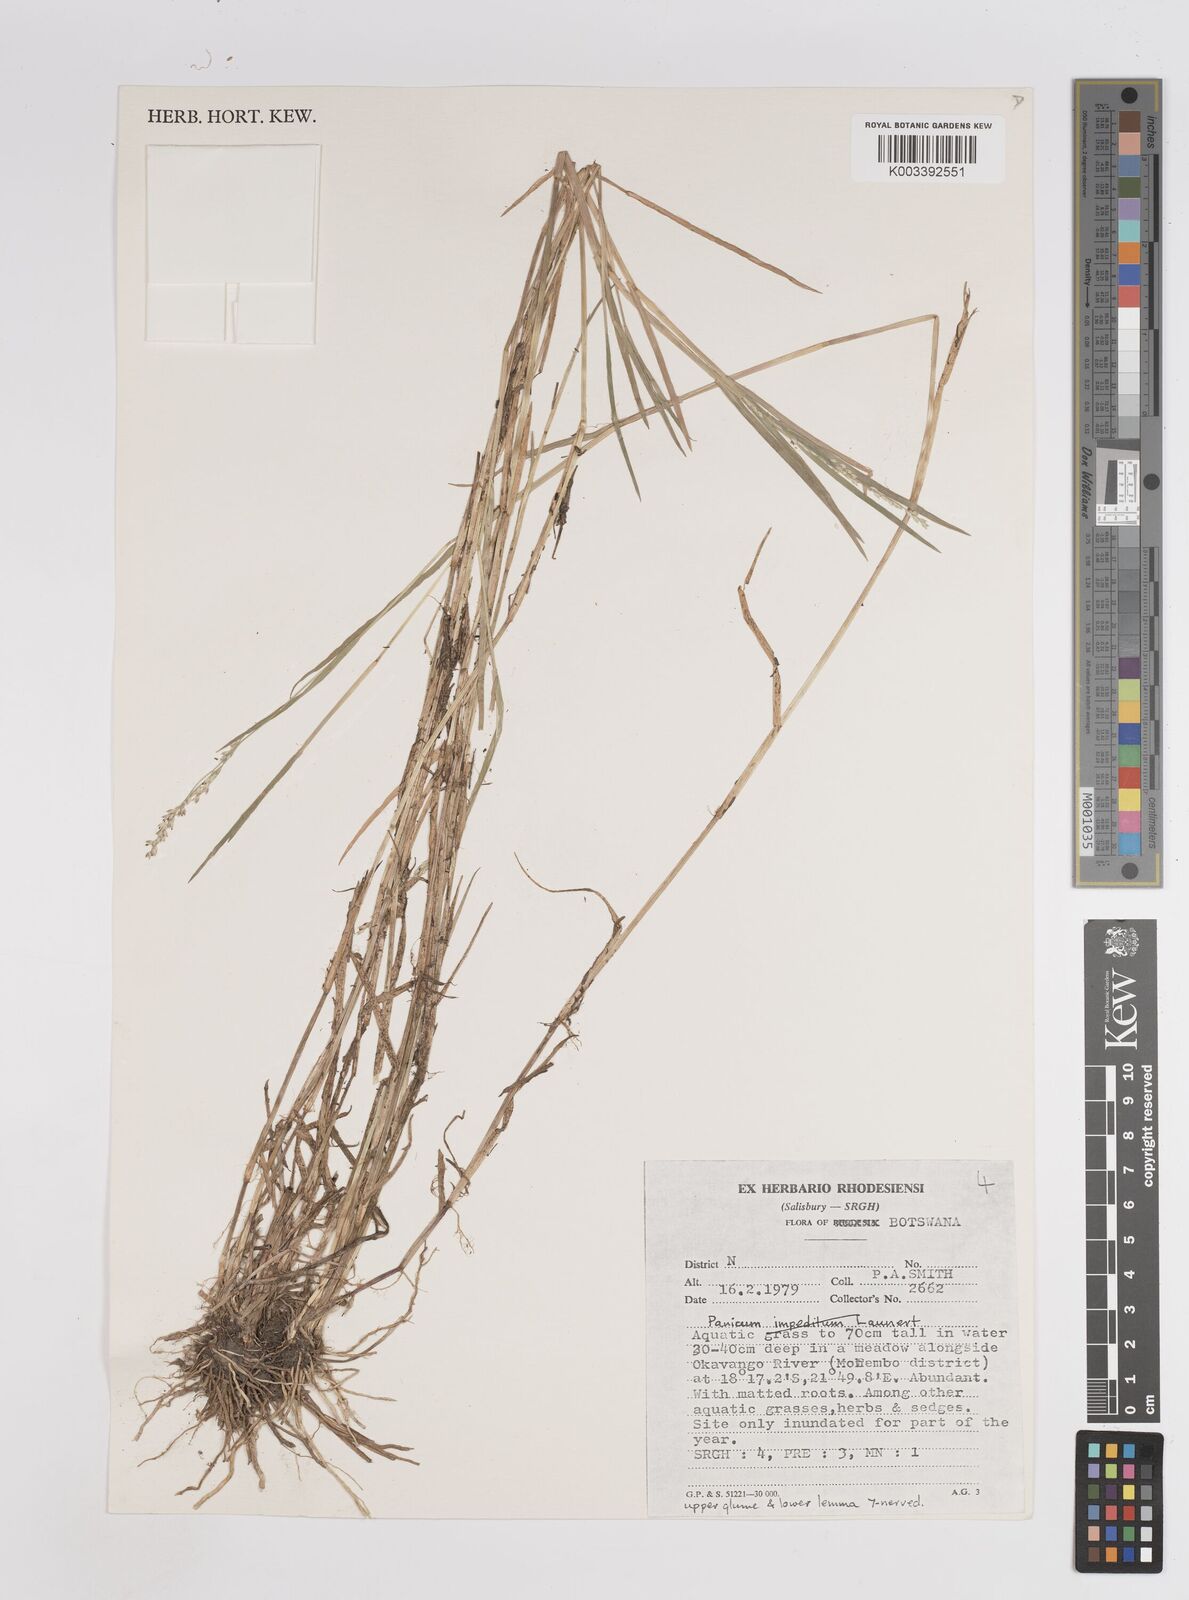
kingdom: Plantae
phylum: Tracheophyta
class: Liliopsida
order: Poales
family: Poaceae
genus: Panicum
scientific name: Panicum hygrocharis
